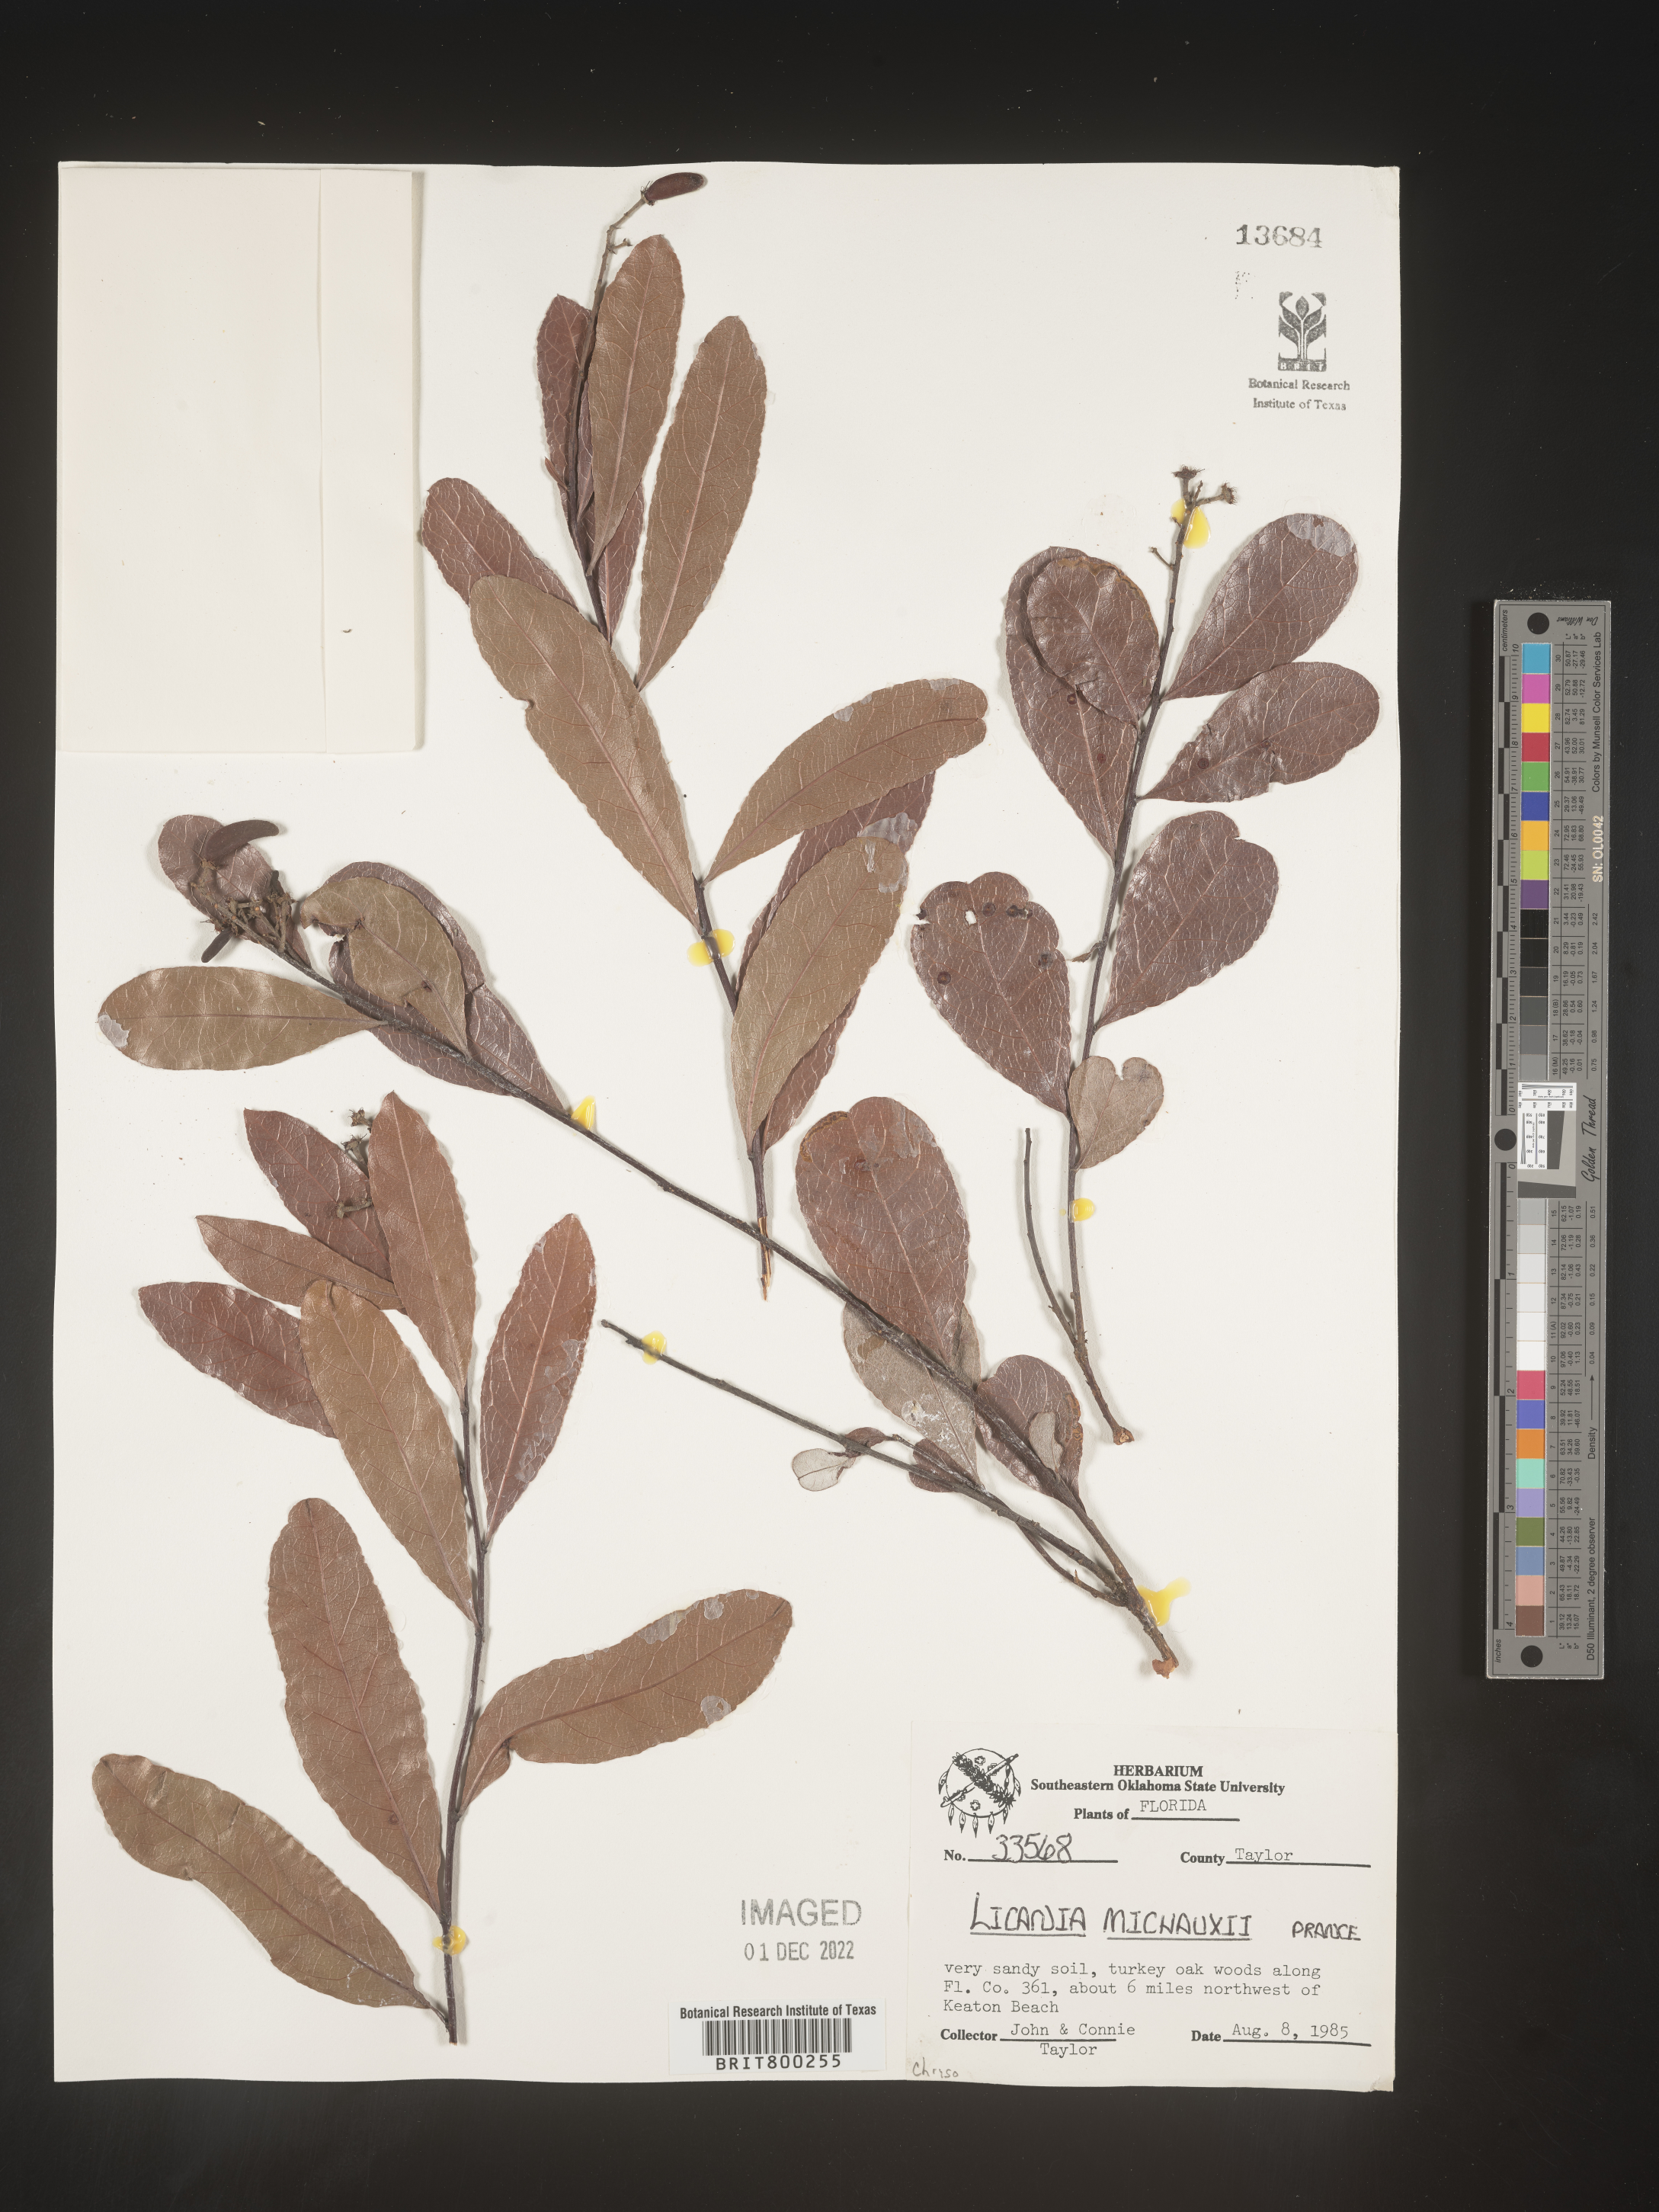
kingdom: Plantae
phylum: Tracheophyta
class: Magnoliopsida
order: Malpighiales
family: Chrysobalanaceae
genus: Geobalanus
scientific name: Geobalanus oblongifolius
